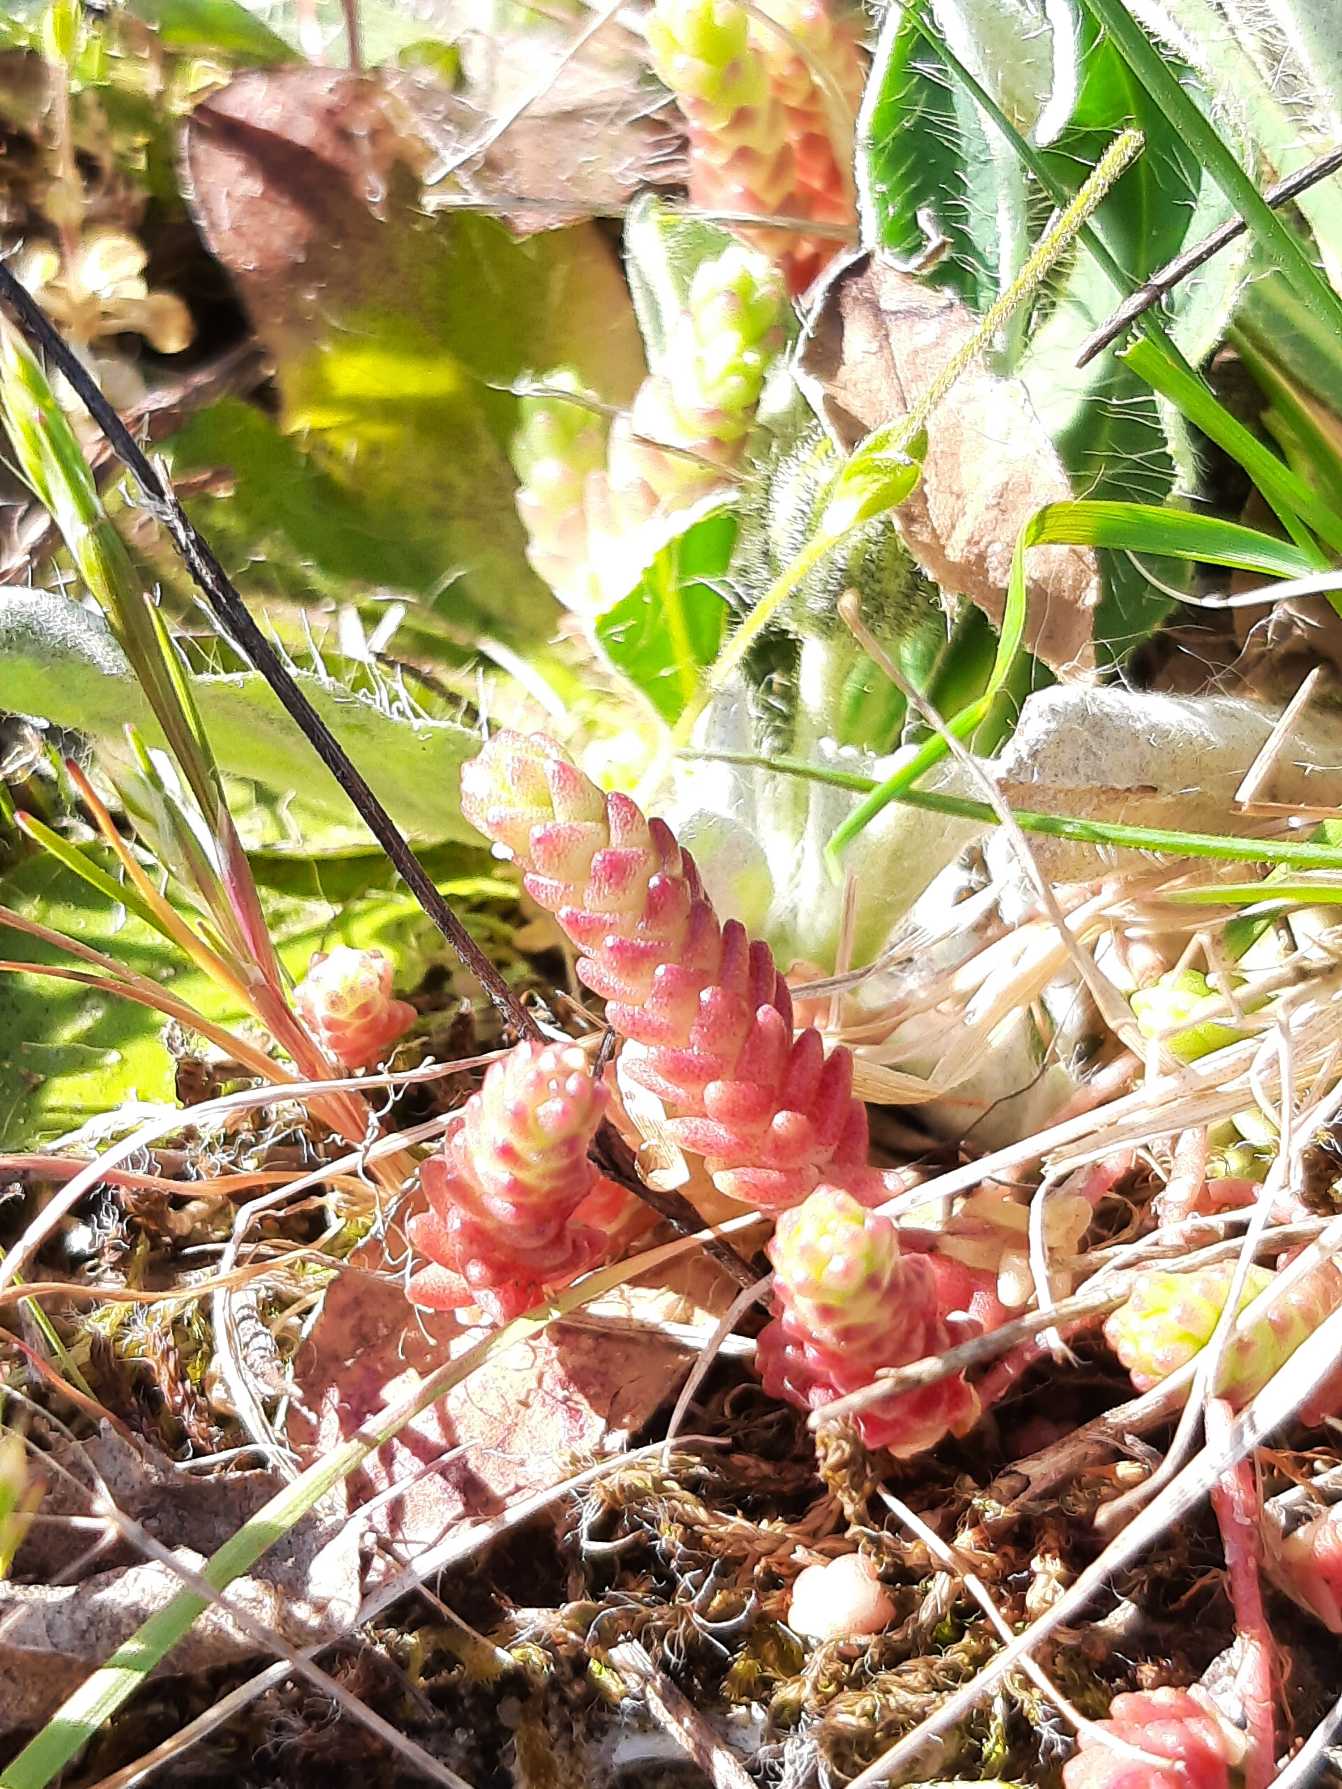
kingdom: Plantae
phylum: Tracheophyta
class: Magnoliopsida
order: Saxifragales
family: Crassulaceae
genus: Sedum
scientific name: Sedum acre
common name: Bidende stenurt
